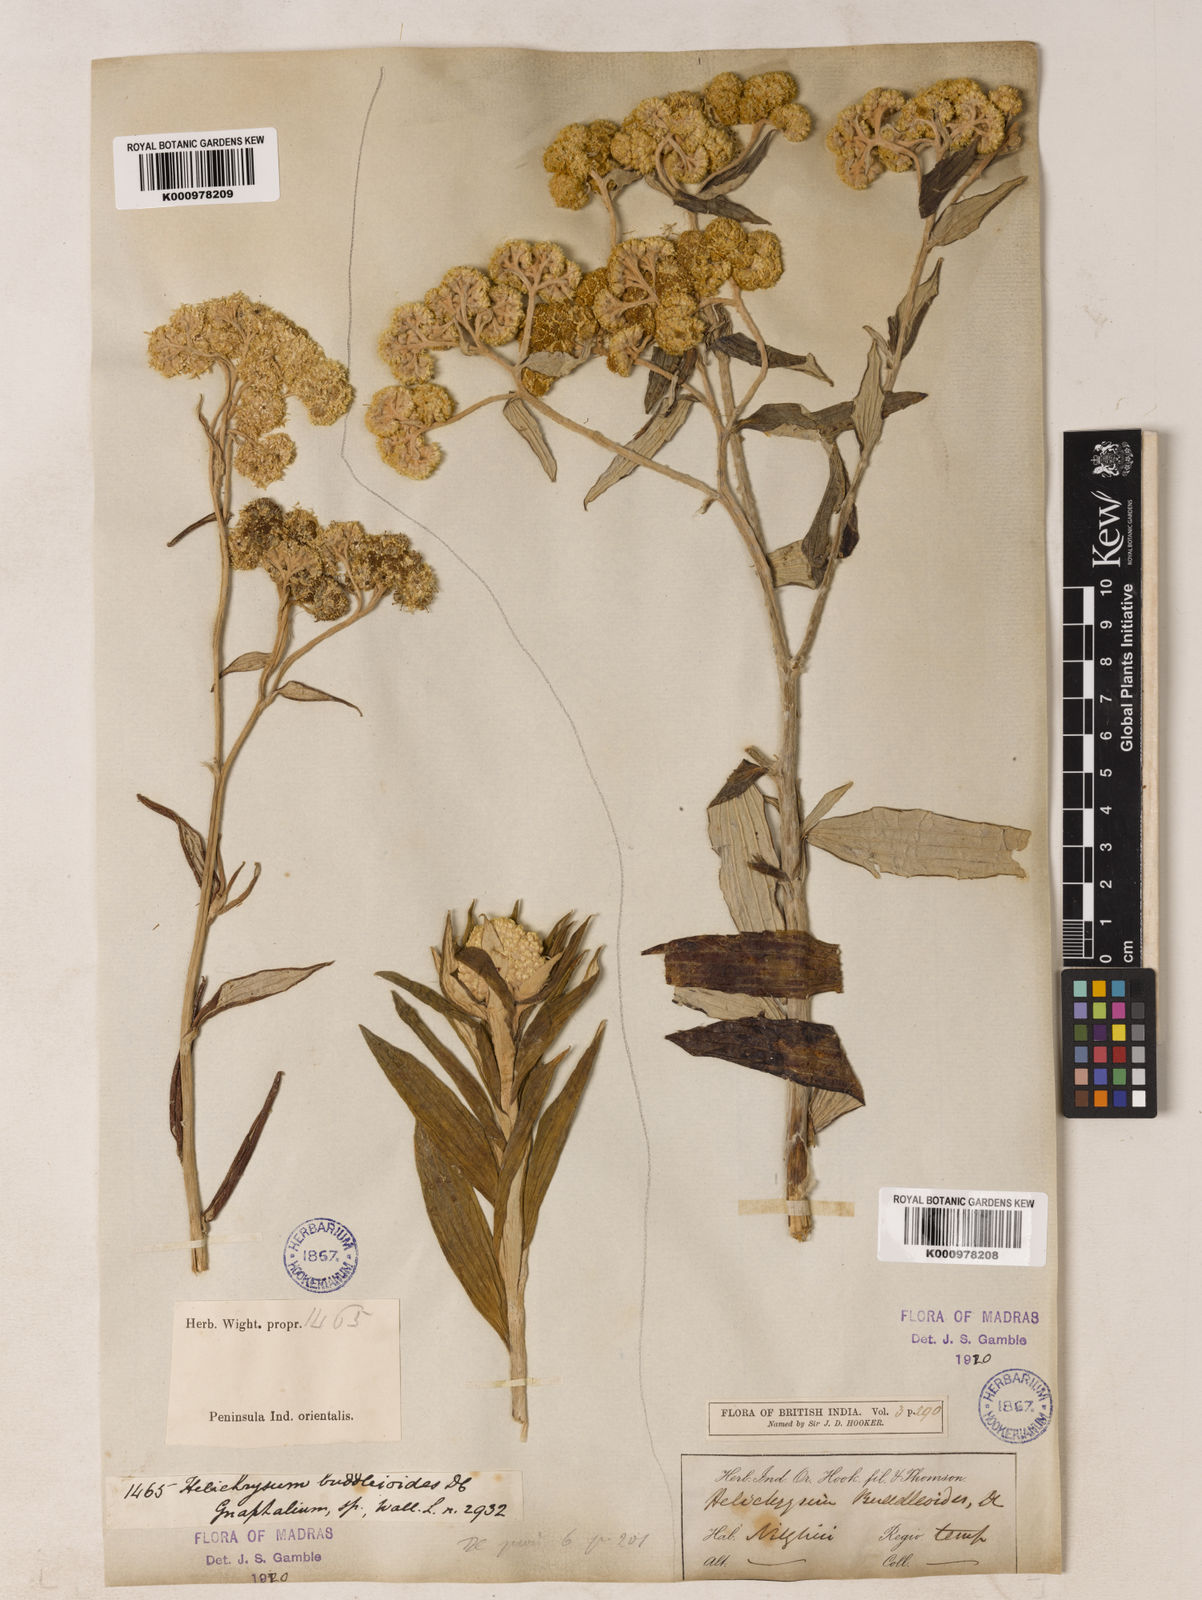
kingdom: Plantae
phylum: Tracheophyta
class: Magnoliopsida
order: Asterales
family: Asteraceae
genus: Helichrysum
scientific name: Helichrysum
